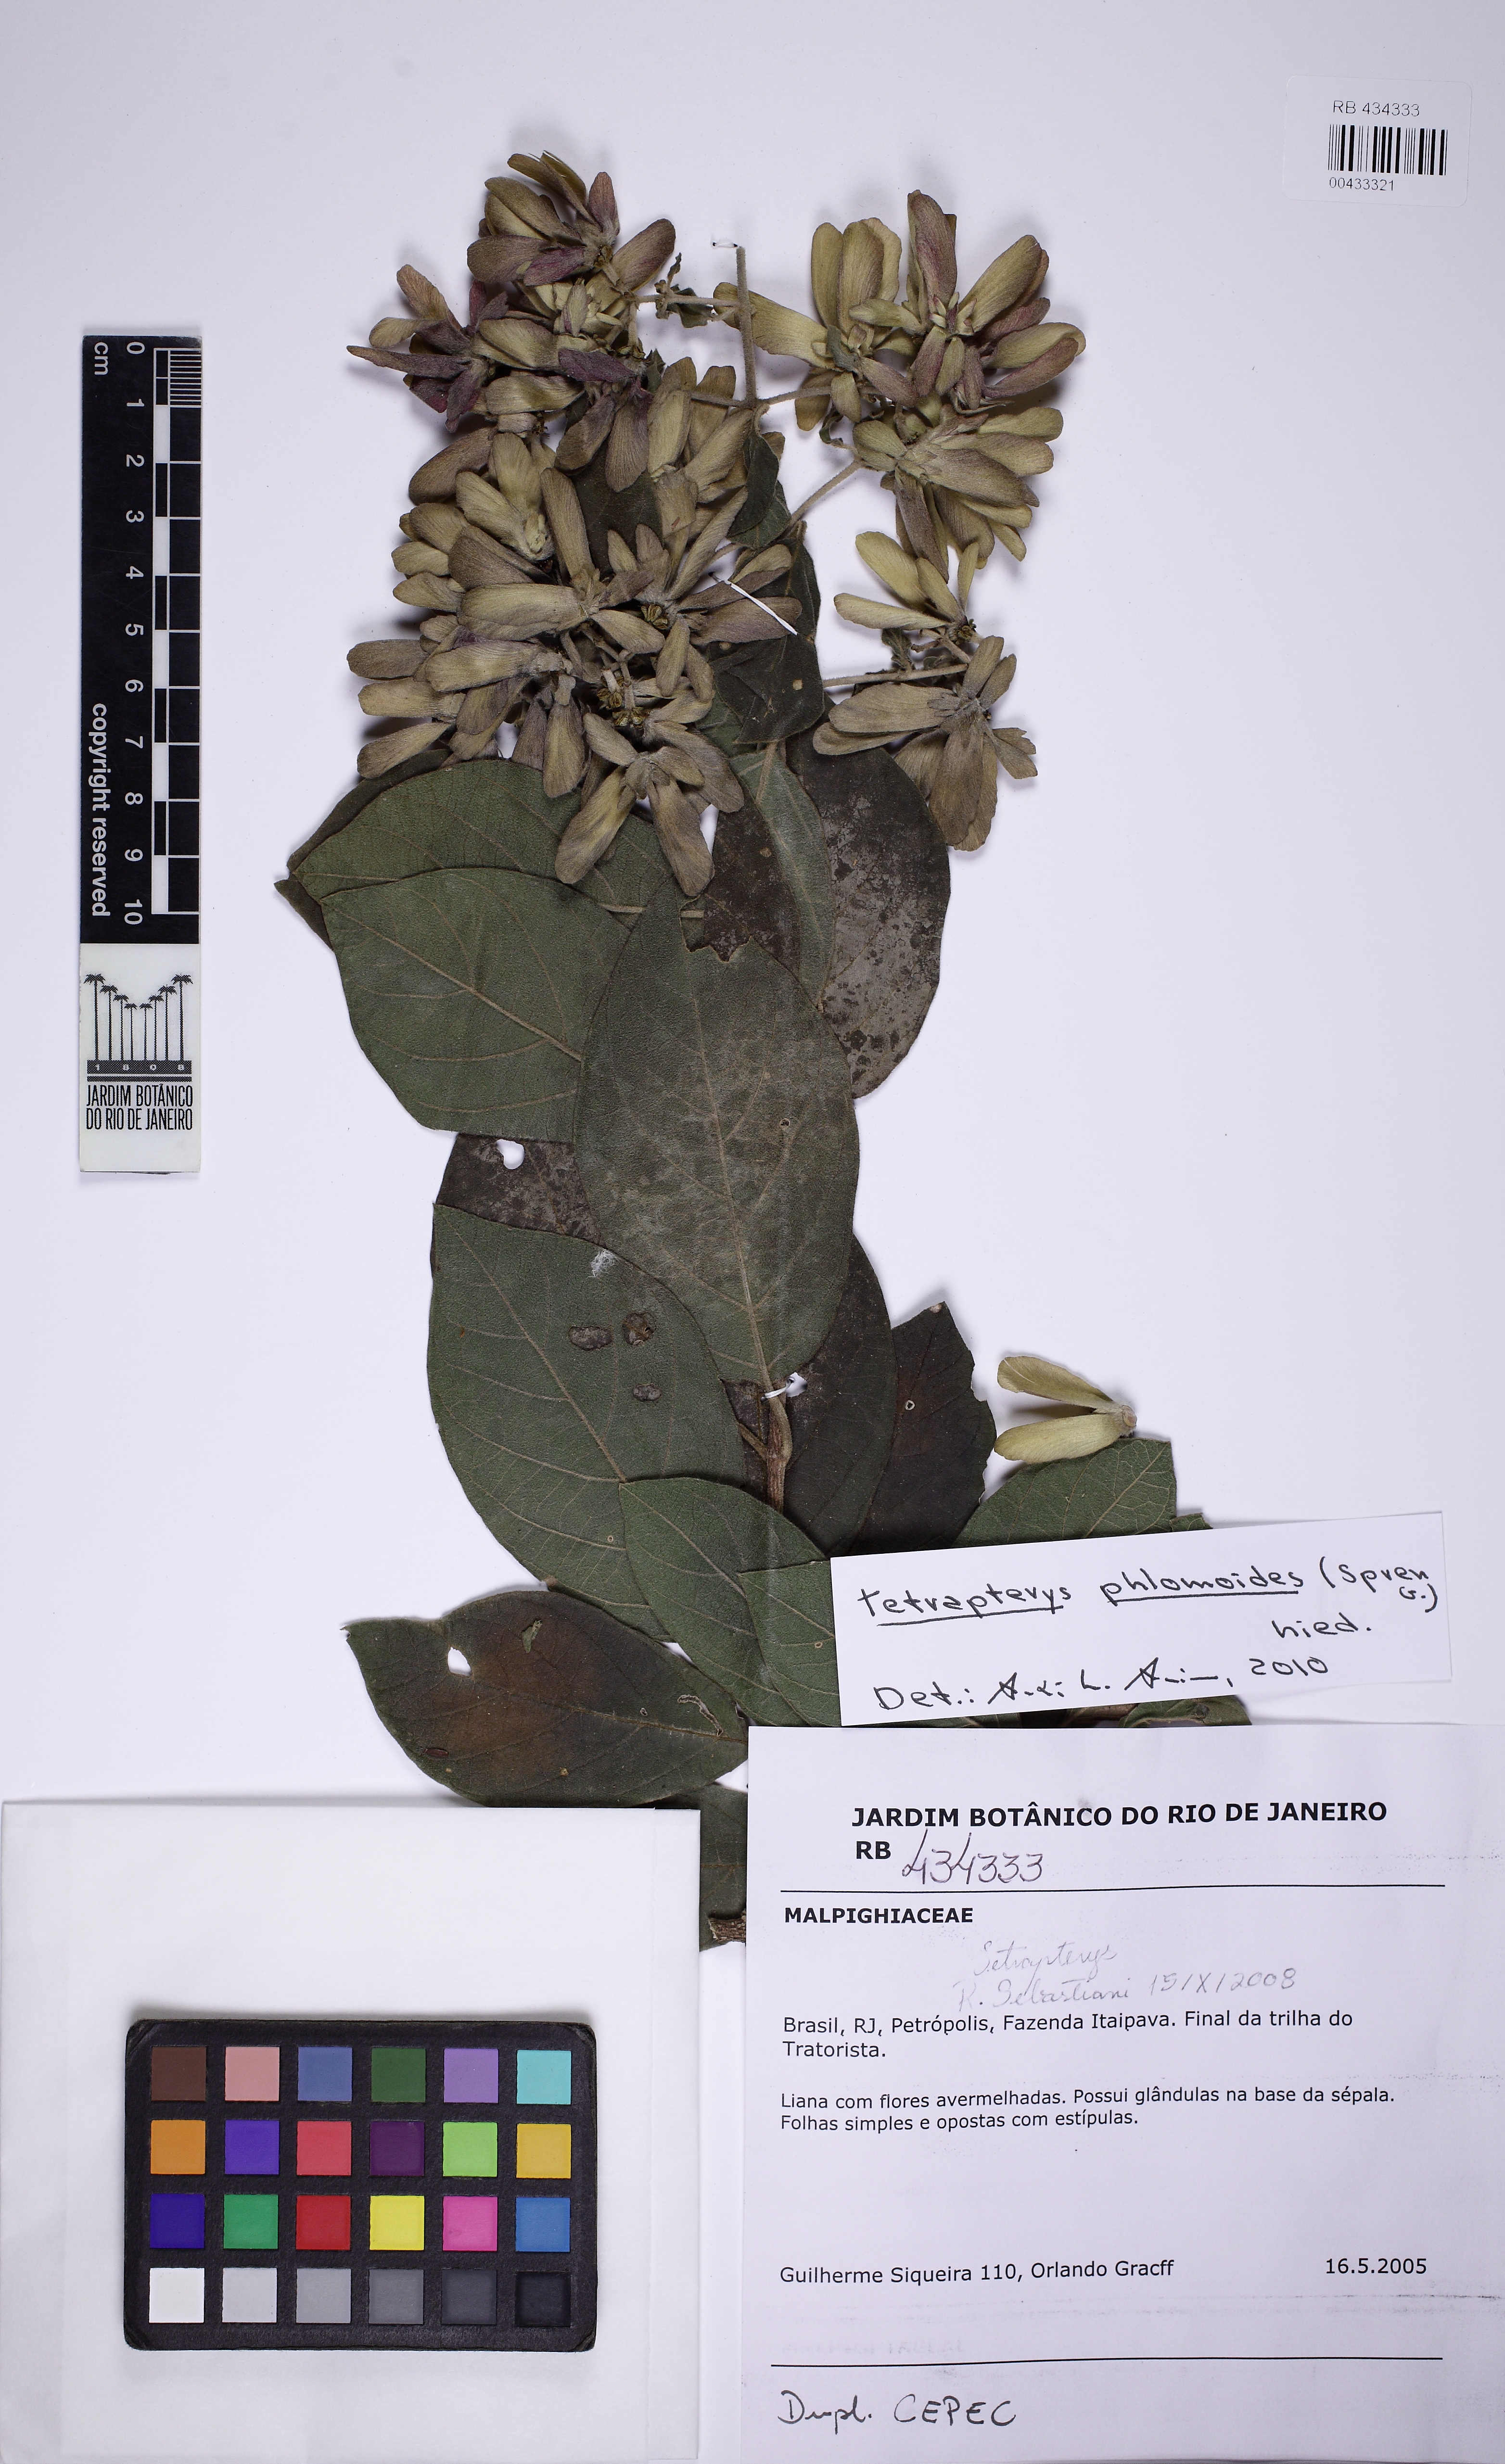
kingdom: Plantae
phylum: Tracheophyta
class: Magnoliopsida
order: Malpighiales
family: Malpighiaceae
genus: Tetrapterys
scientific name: Tetrapterys phlomoides
